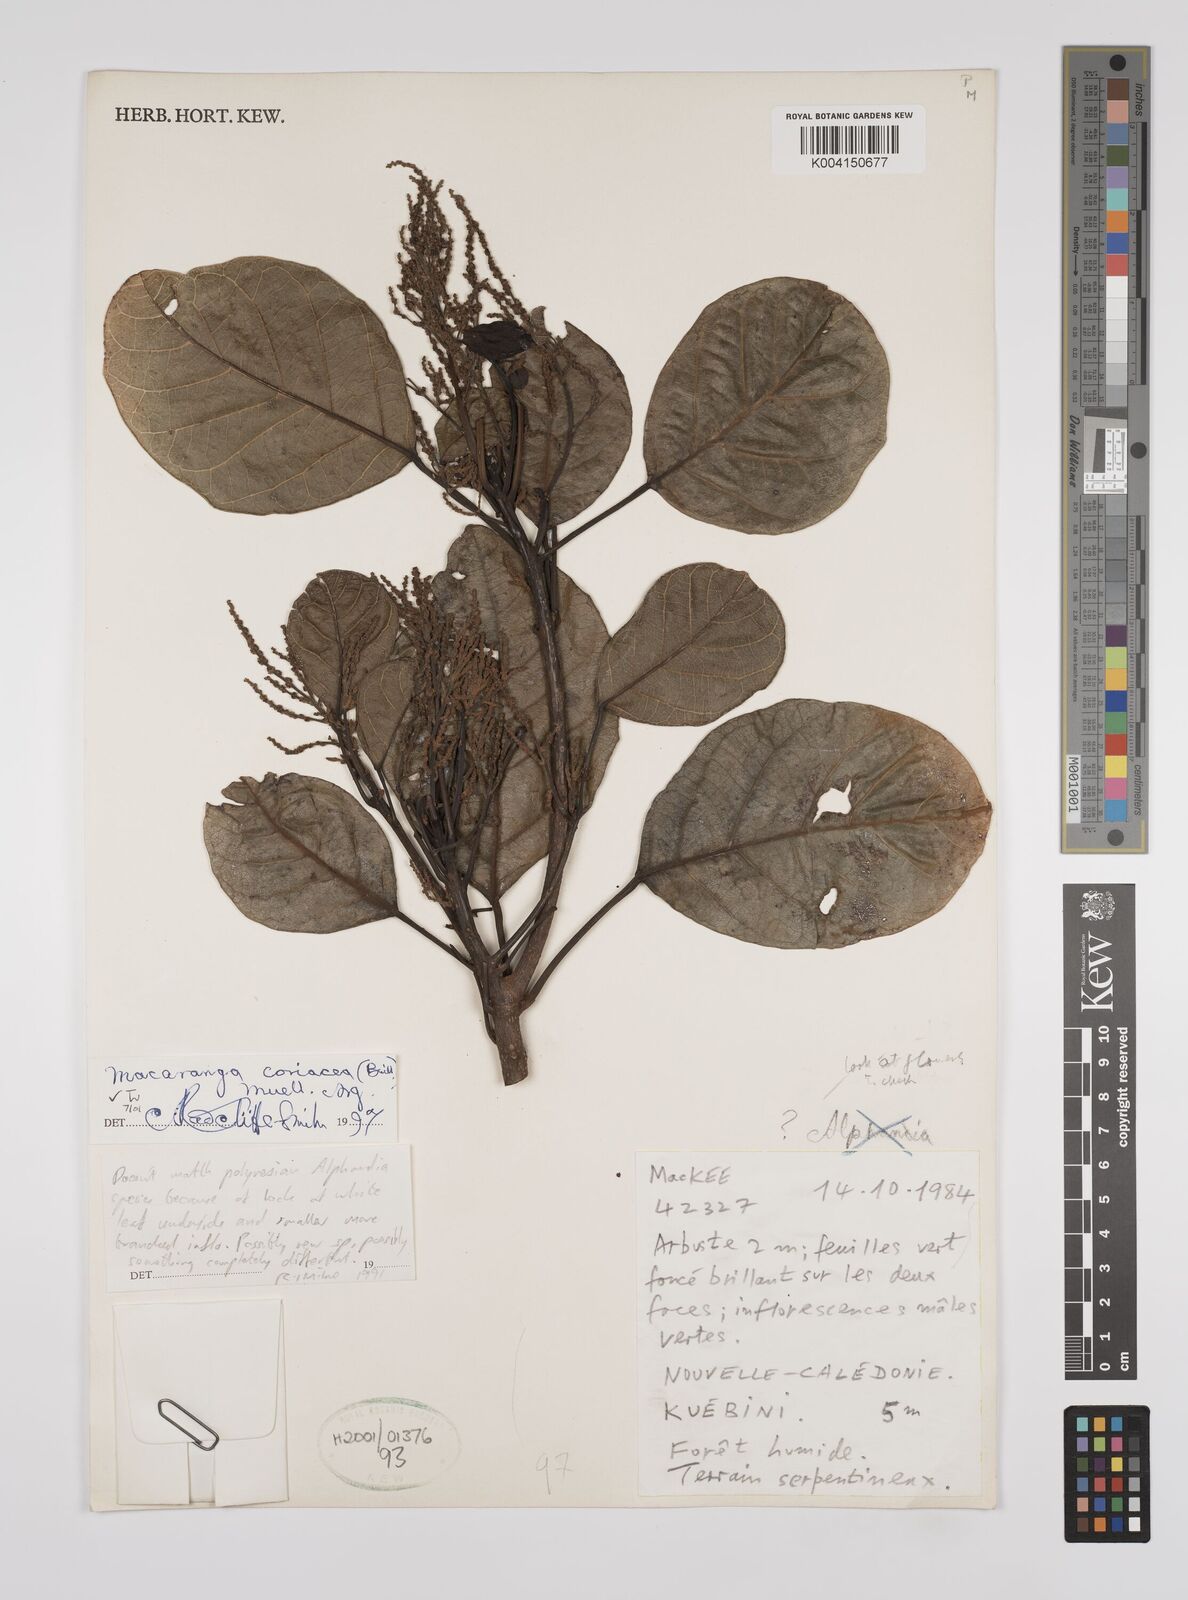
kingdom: Plantae
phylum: Tracheophyta
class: Magnoliopsida
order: Malpighiales
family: Euphorbiaceae
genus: Macaranga
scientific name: Macaranga coriacea
